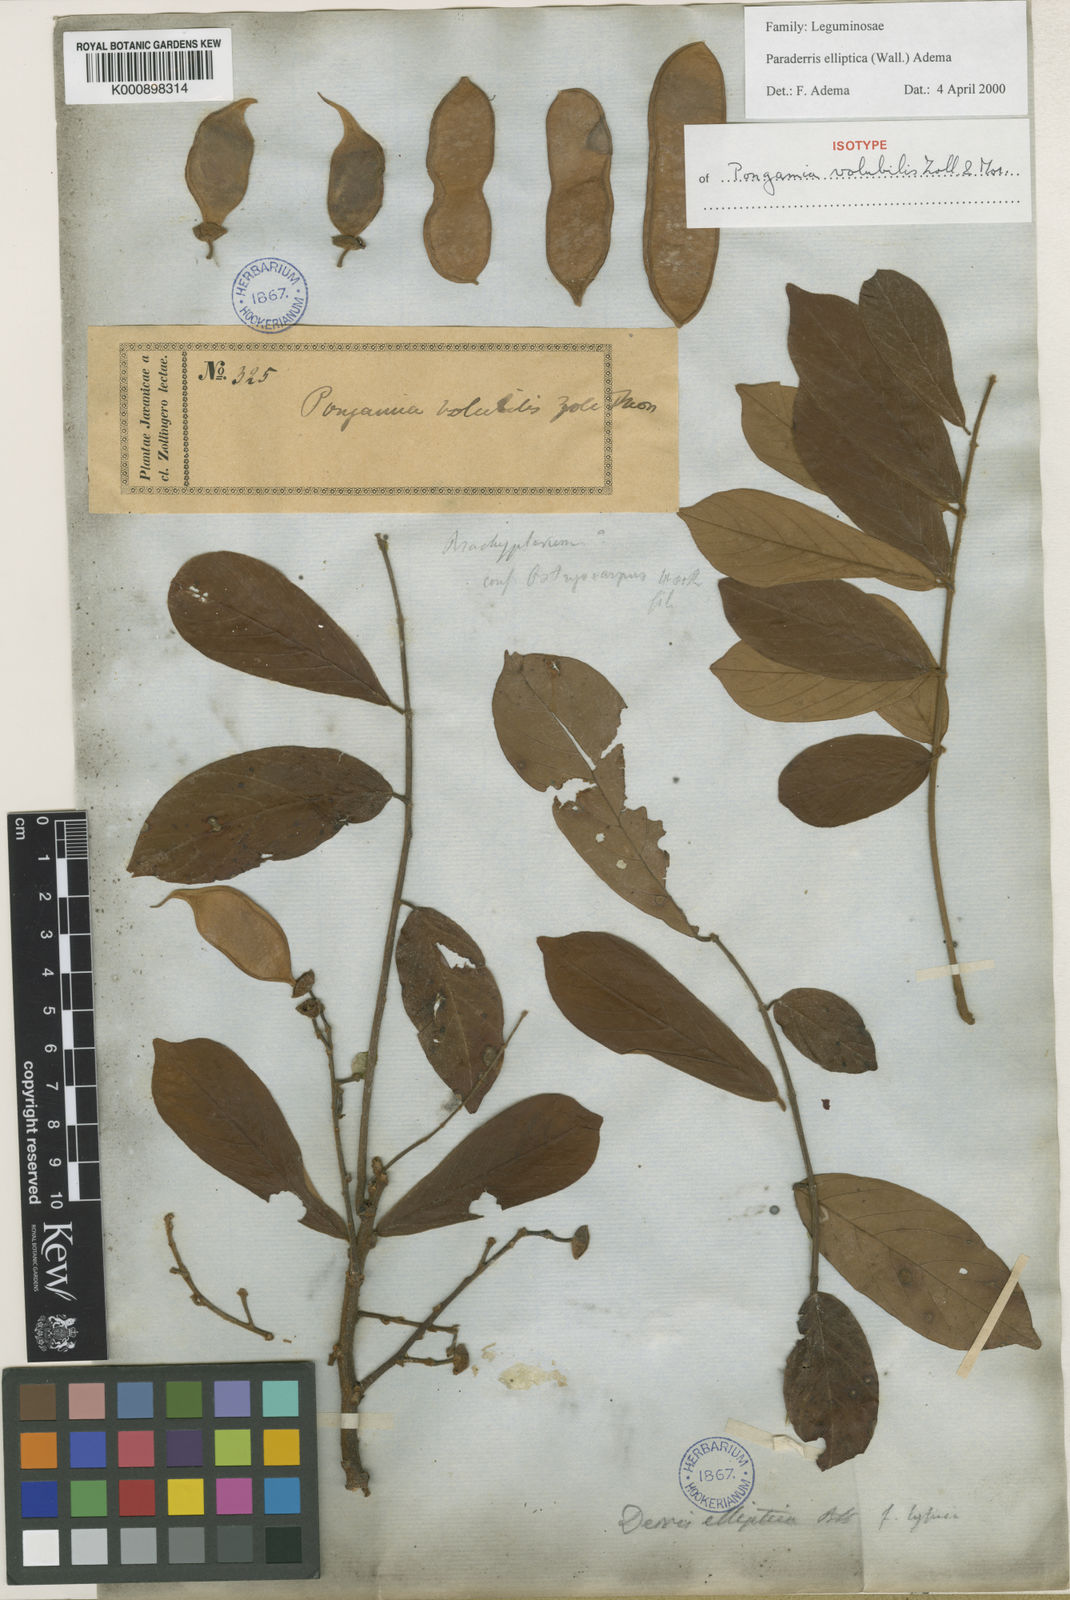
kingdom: Plantae
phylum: Tracheophyta
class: Magnoliopsida
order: Fabales
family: Fabaceae
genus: Derris
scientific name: Derris elliptica
